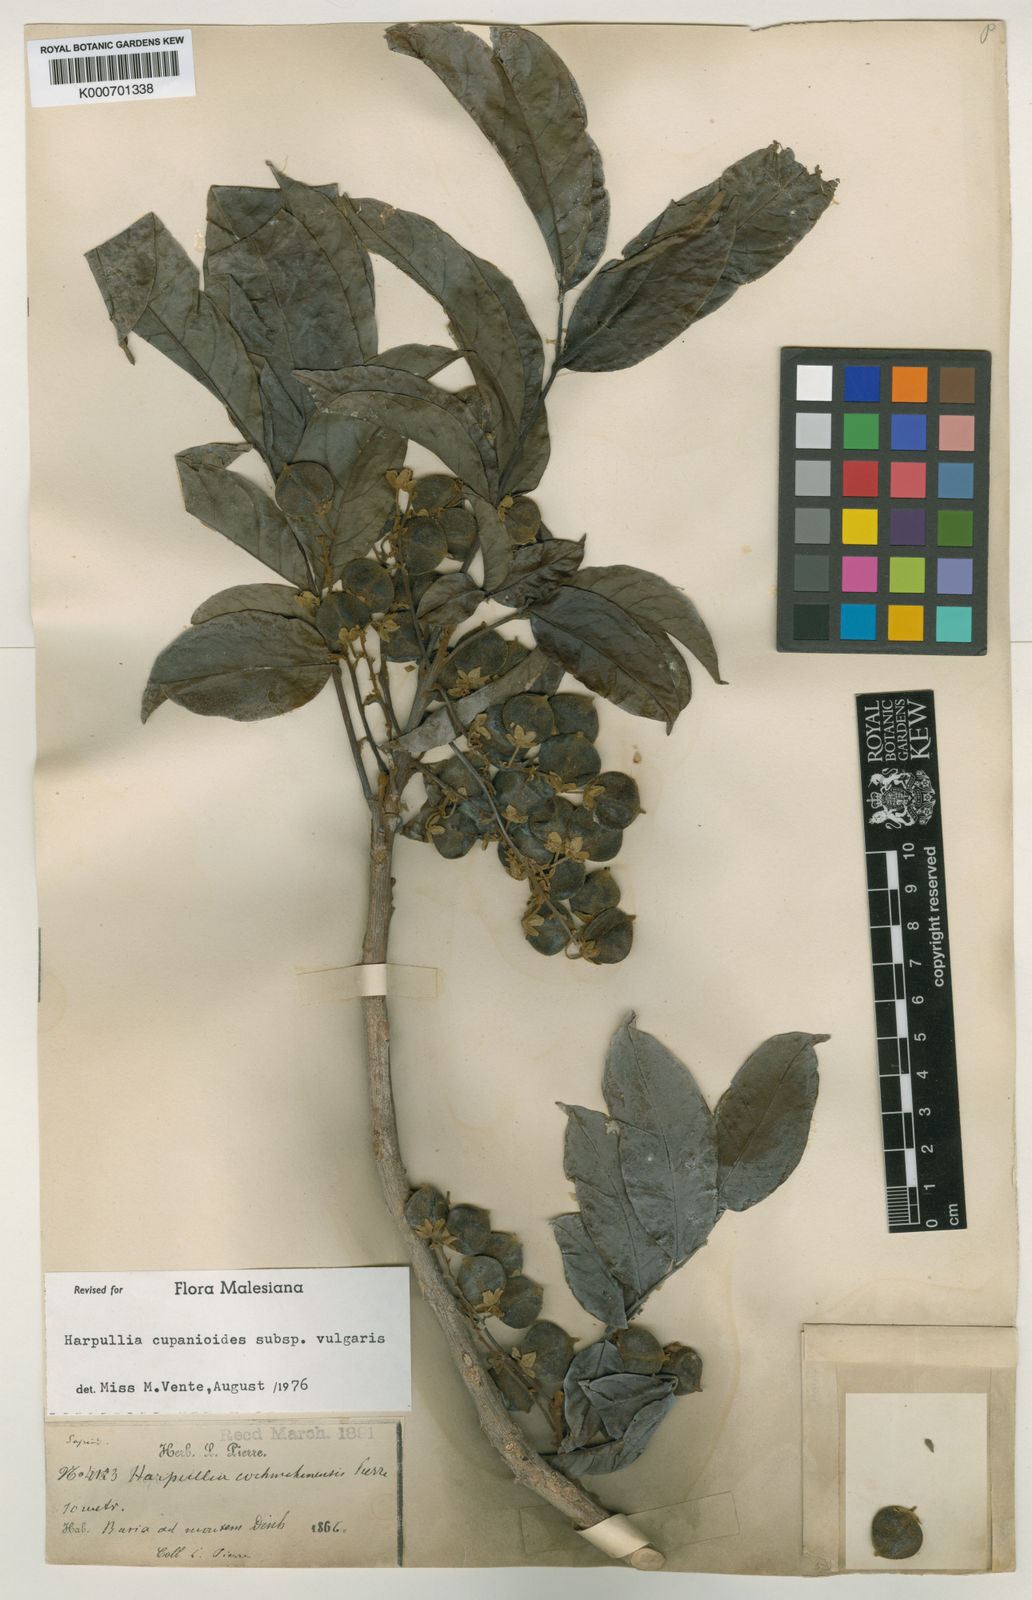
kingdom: Plantae
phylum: Tracheophyta
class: Magnoliopsida
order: Sapindales
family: Sapindaceae
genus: Harpullia
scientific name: Harpullia cupanioides
